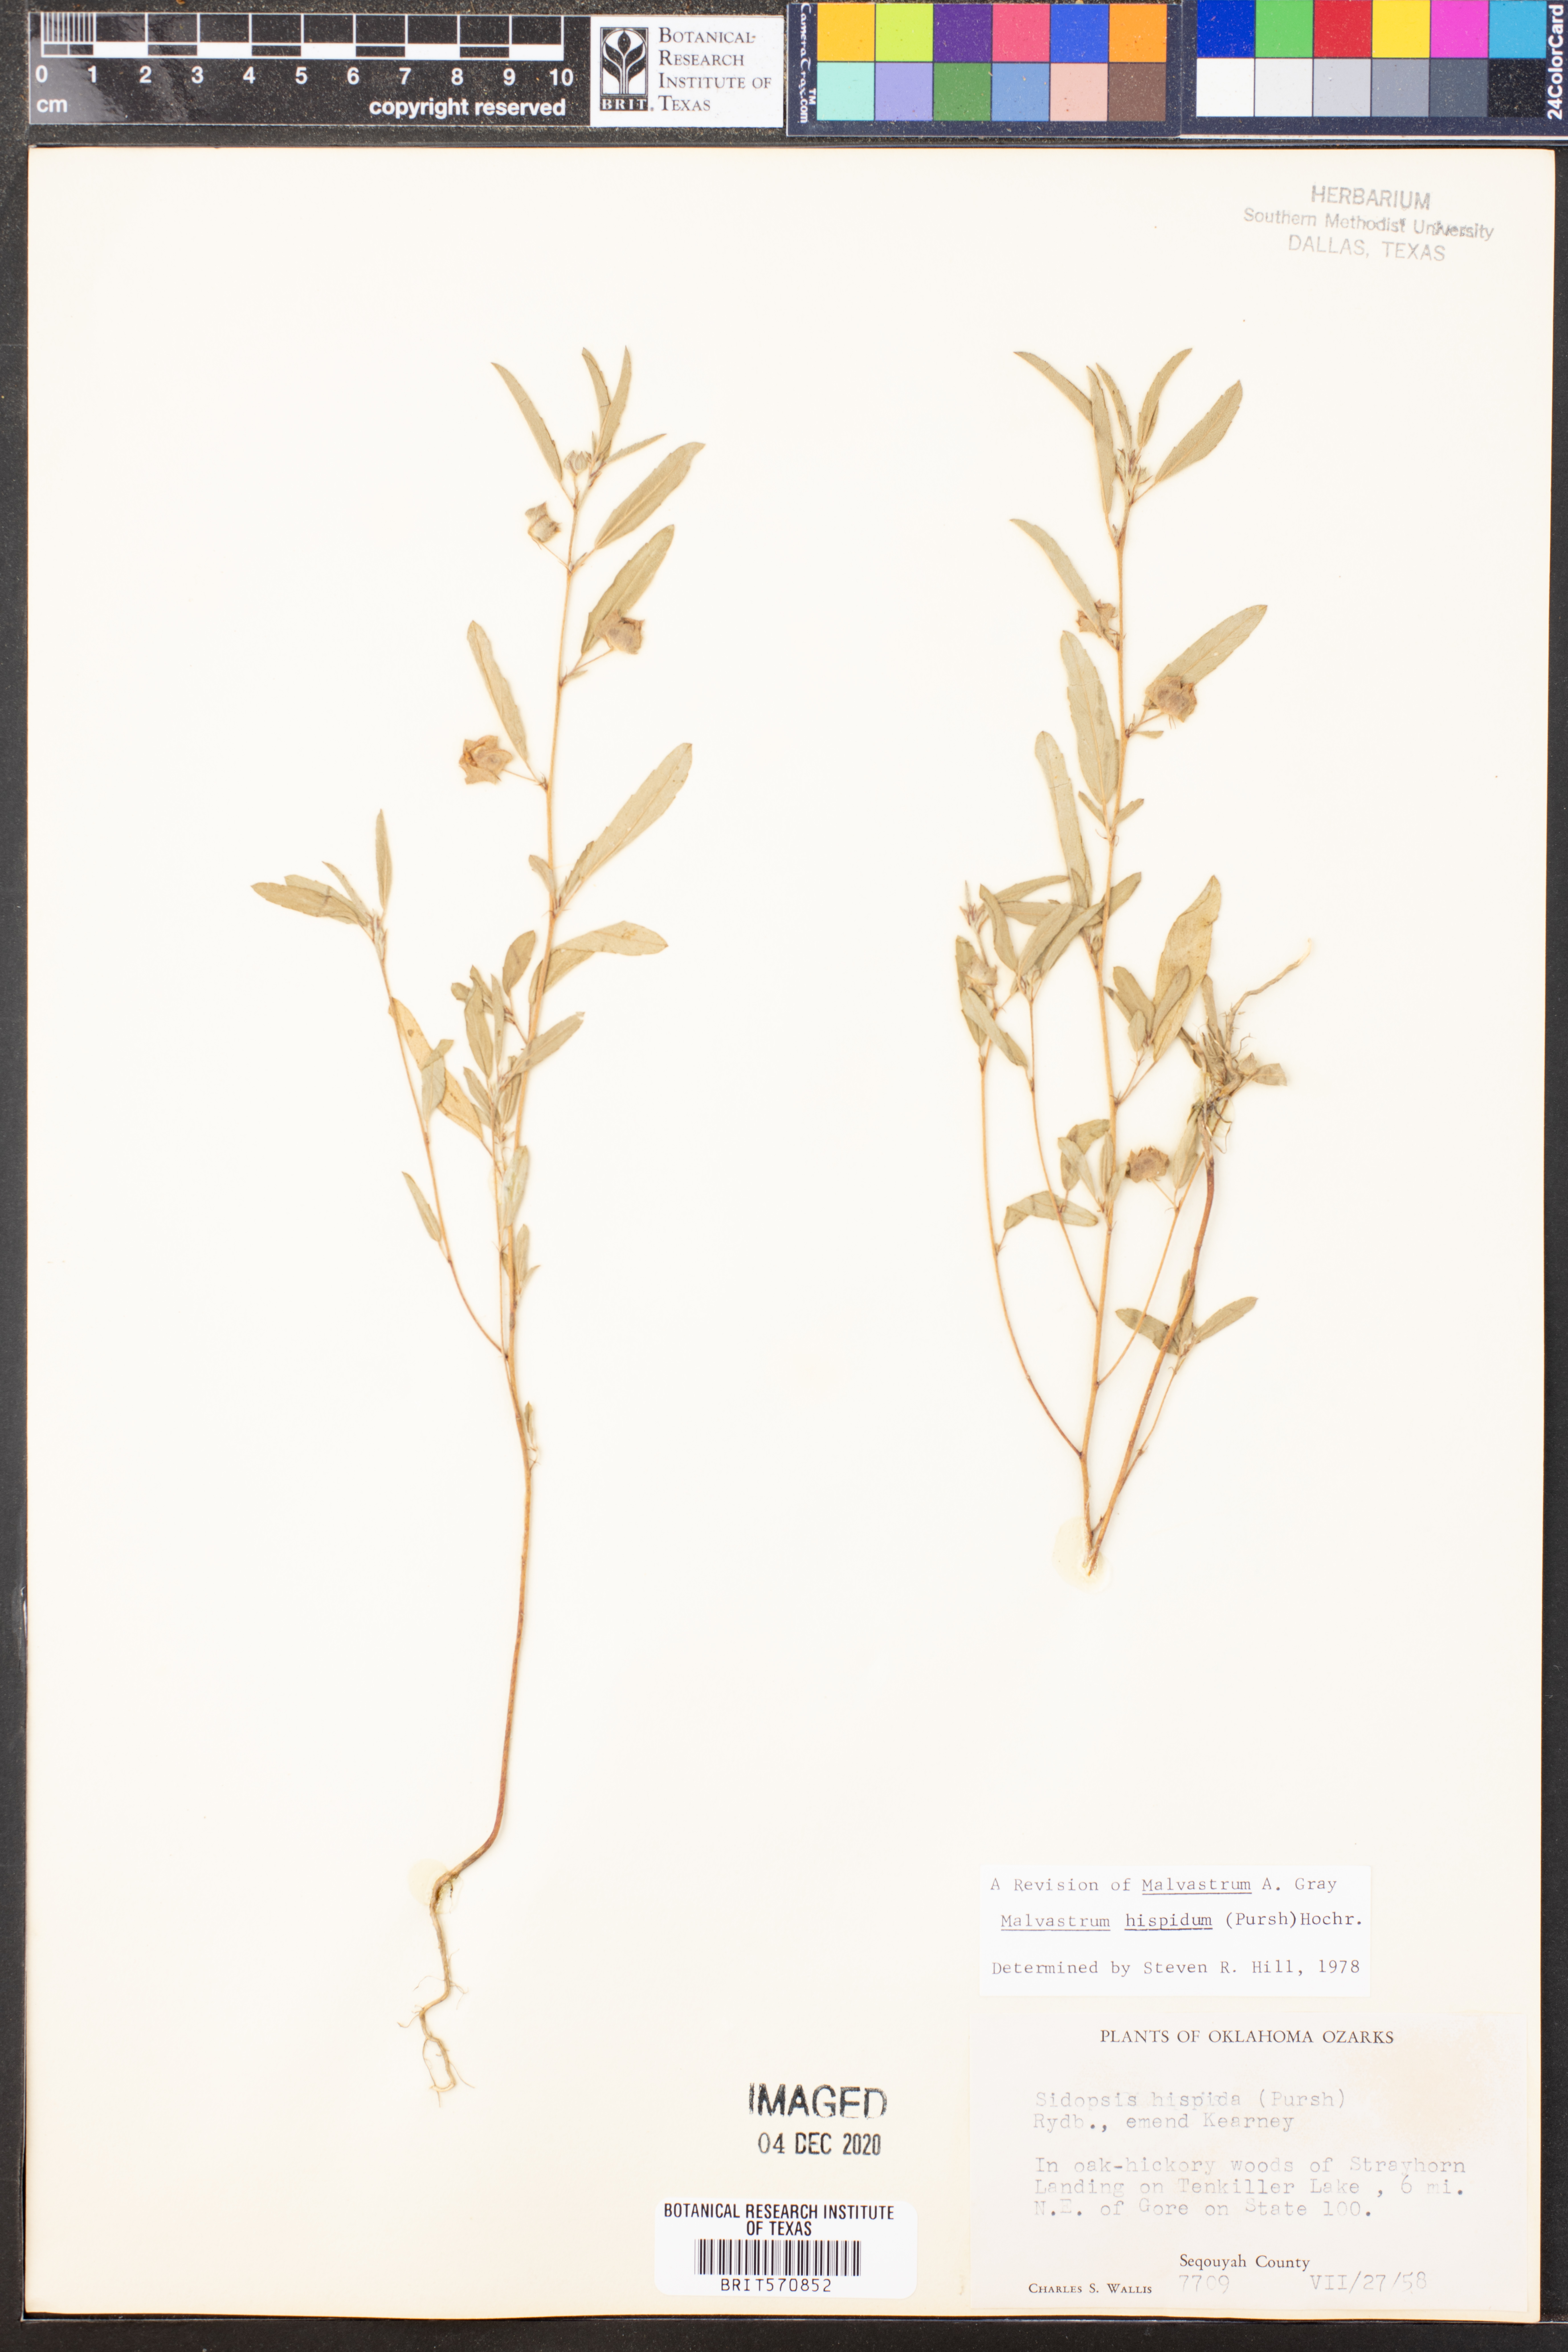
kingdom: Plantae
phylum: Tracheophyta
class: Magnoliopsida
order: Malvales
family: Malvaceae
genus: Malvastrum
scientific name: Malvastrum hispidum
